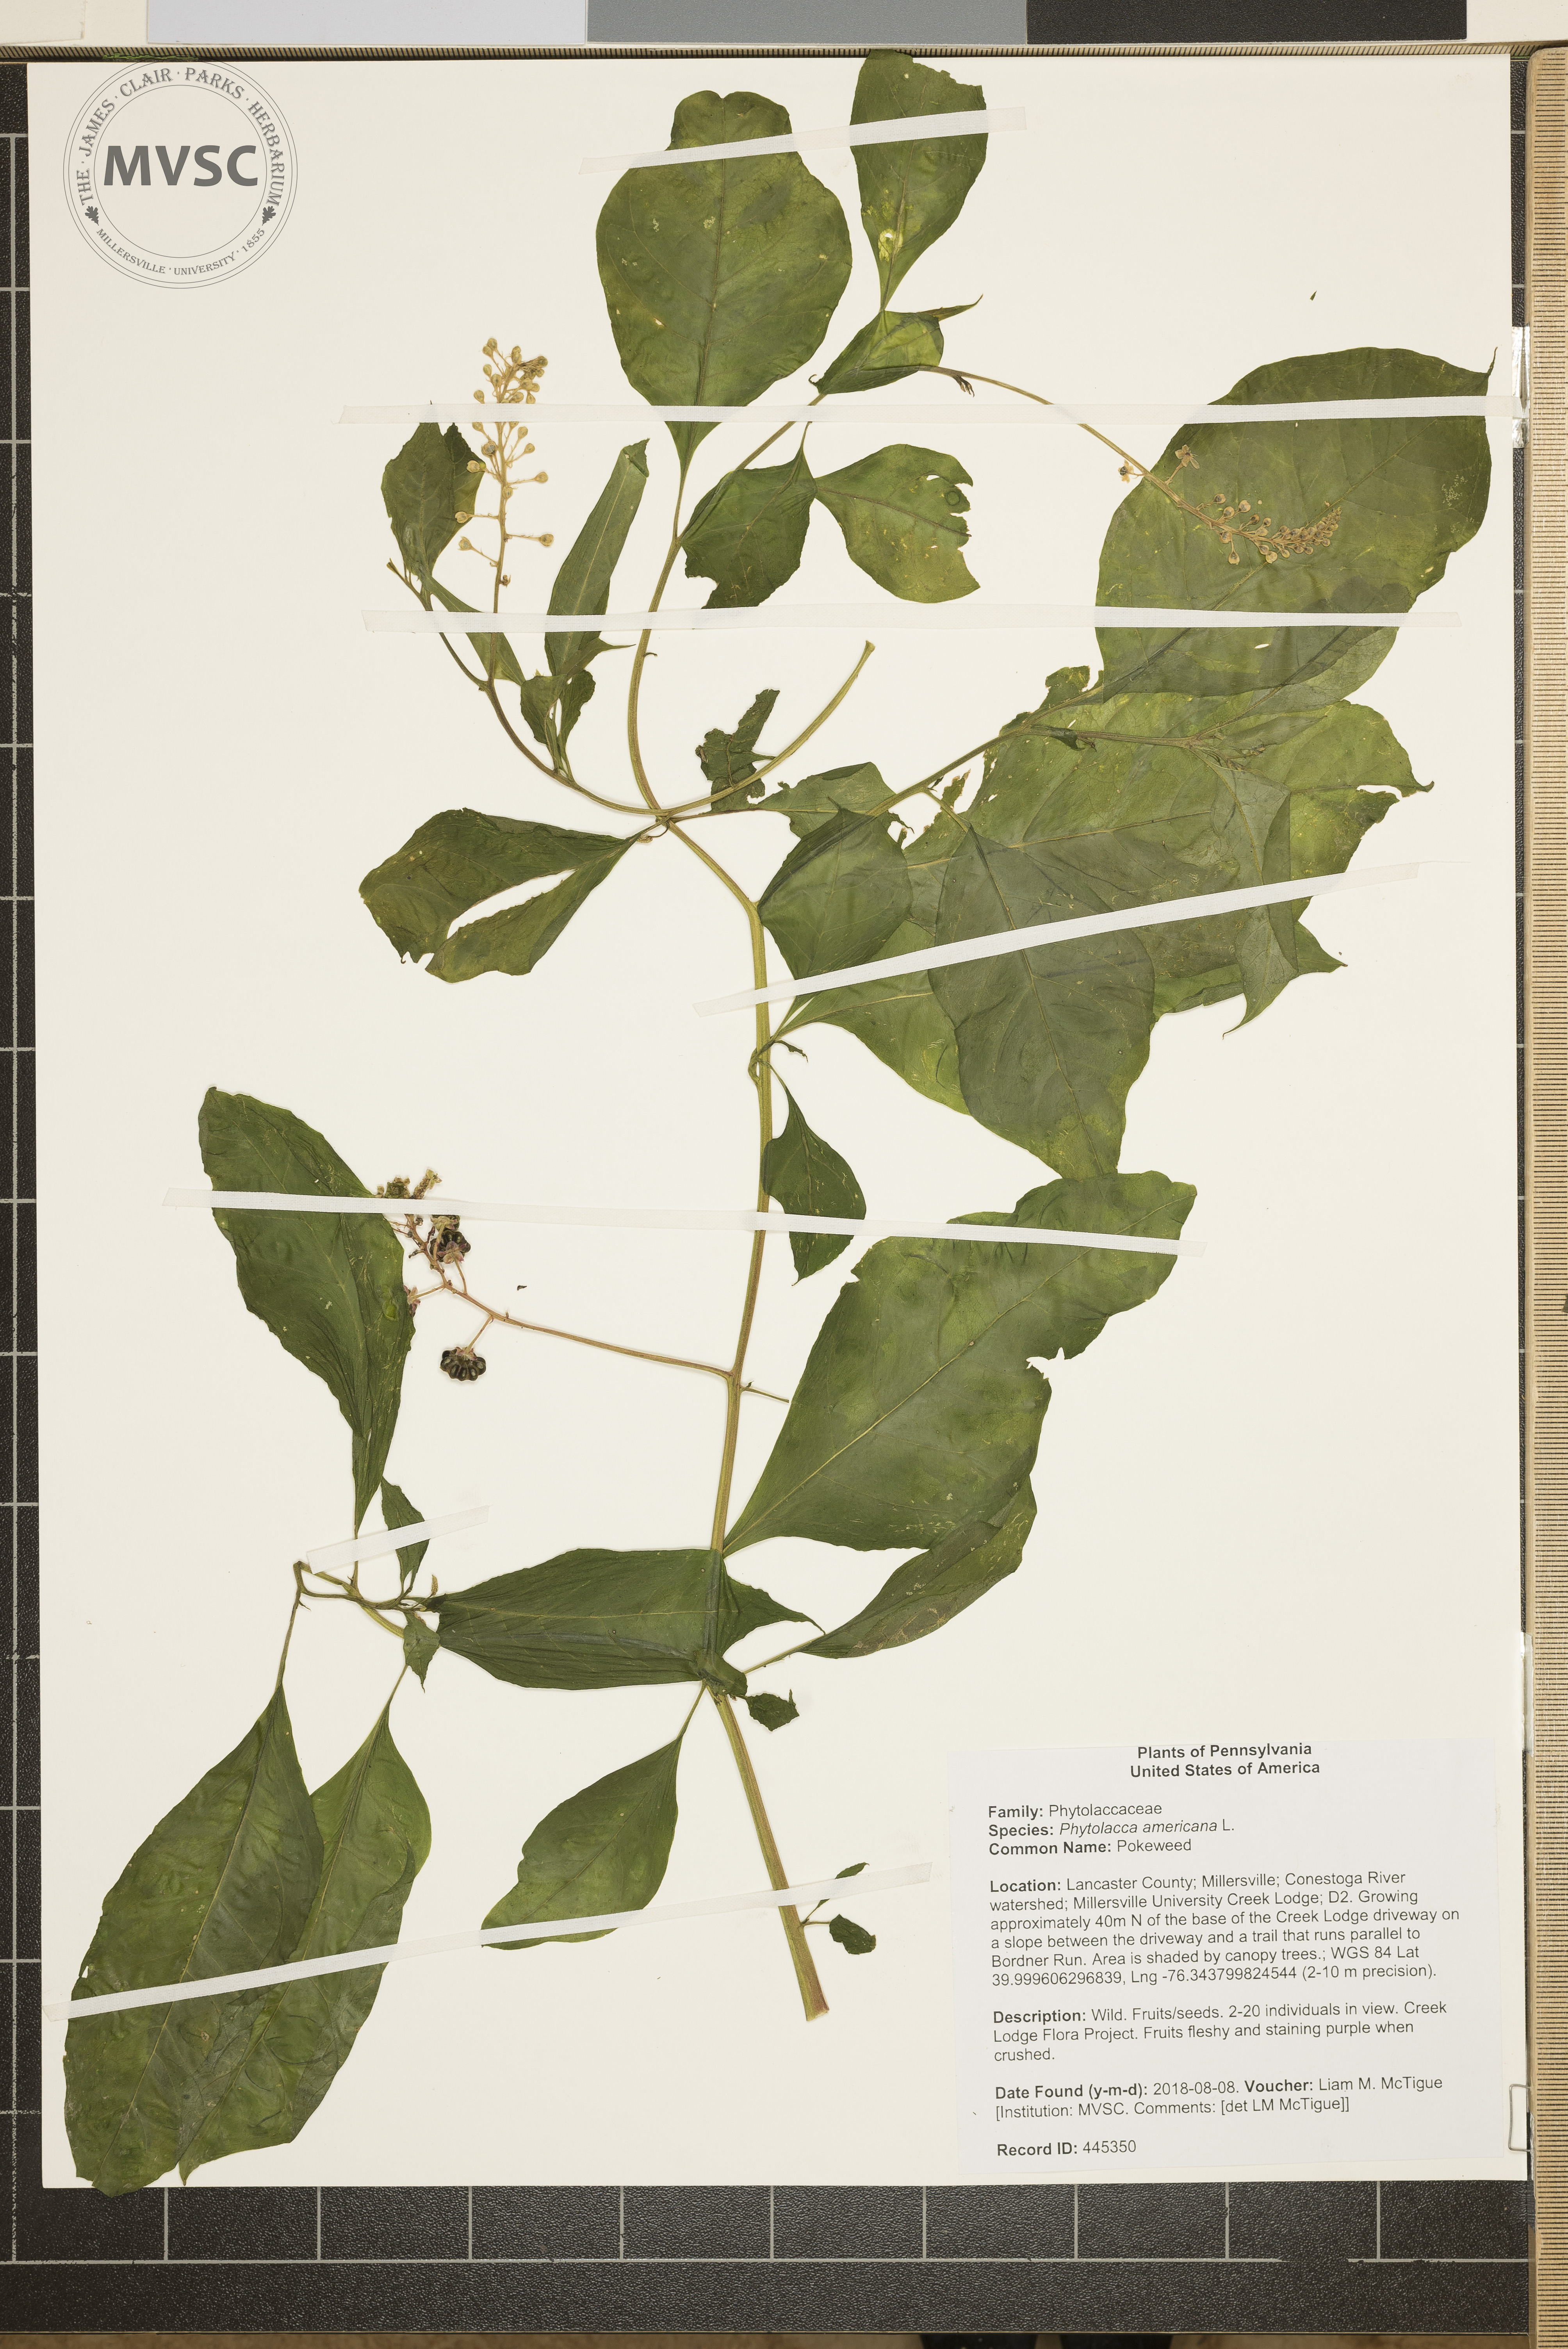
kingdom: Plantae
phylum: Tracheophyta
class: Magnoliopsida
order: Caryophyllales
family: Phytolaccaceae
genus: Phytolacca
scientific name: Phytolacca americana
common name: Pokeweed
